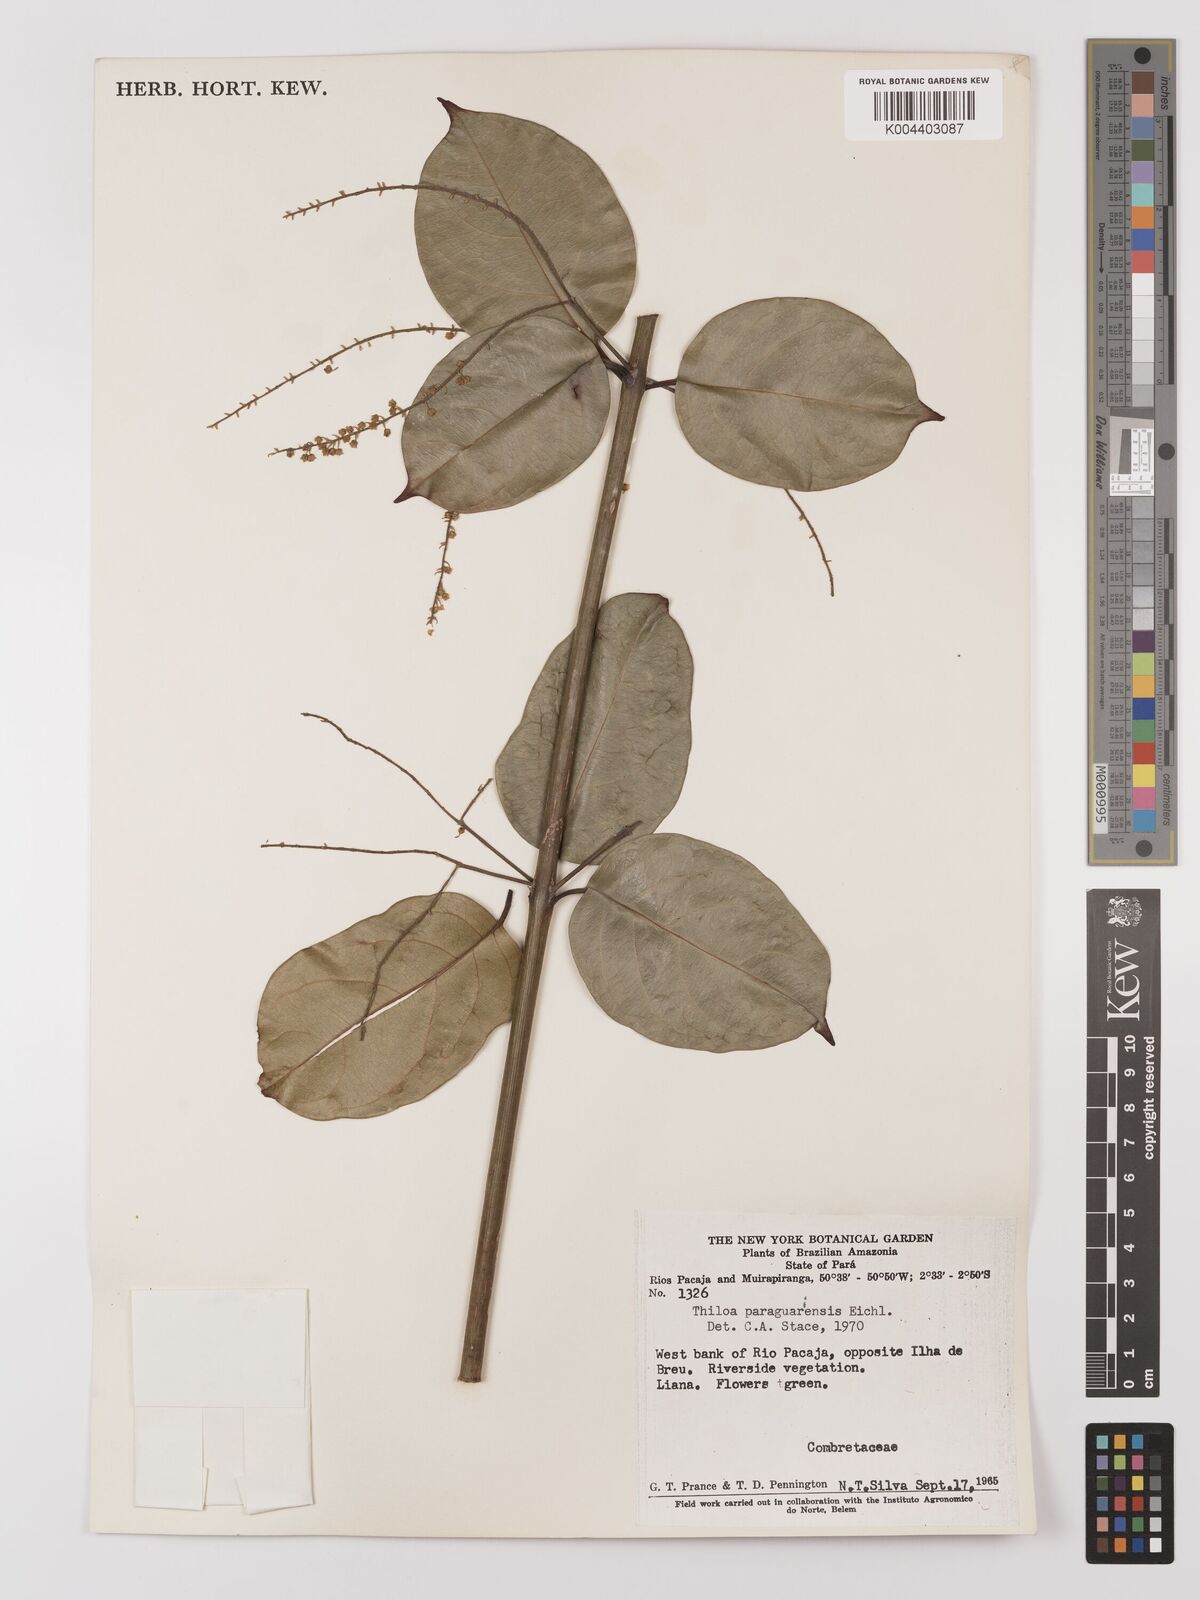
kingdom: Plantae
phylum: Tracheophyta
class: Magnoliopsida
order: Myrtales
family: Combretaceae
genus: Combretum
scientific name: Combretum paraguariense
